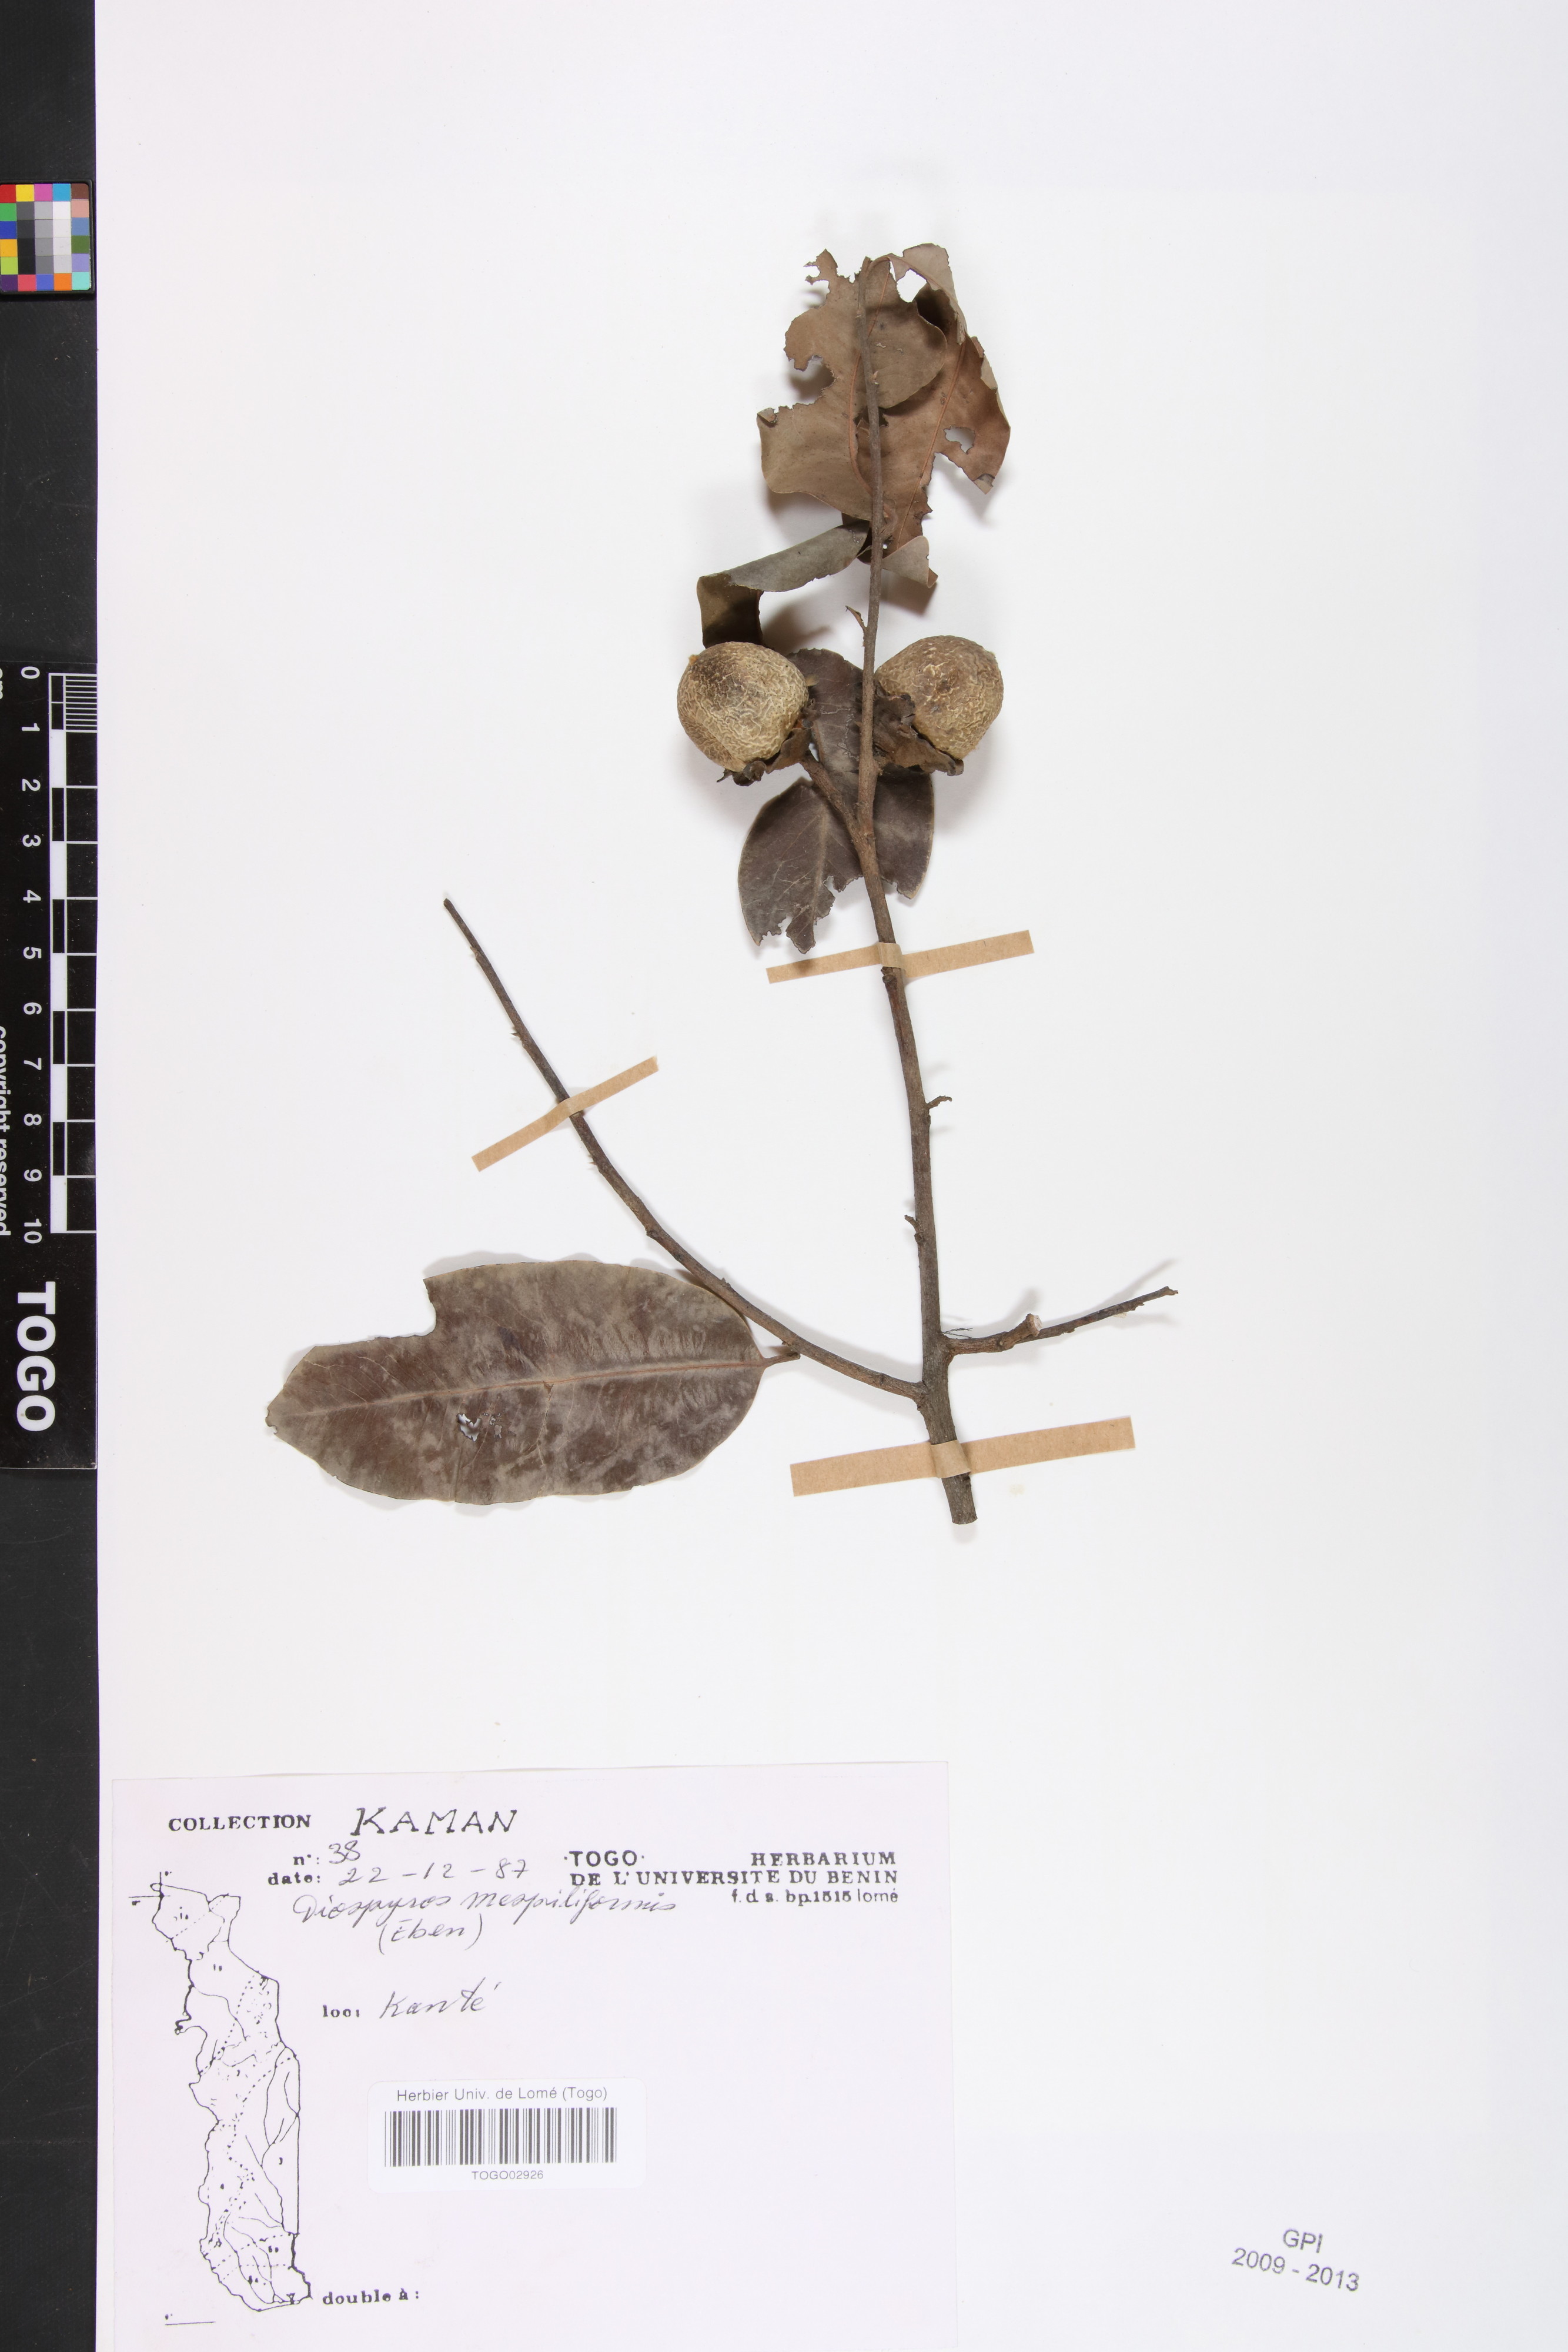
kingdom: Plantae
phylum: Tracheophyta
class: Magnoliopsida
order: Ericales
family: Ebenaceae
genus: Diospyros
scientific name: Diospyros mespiliformis
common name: Ebony diospyros
